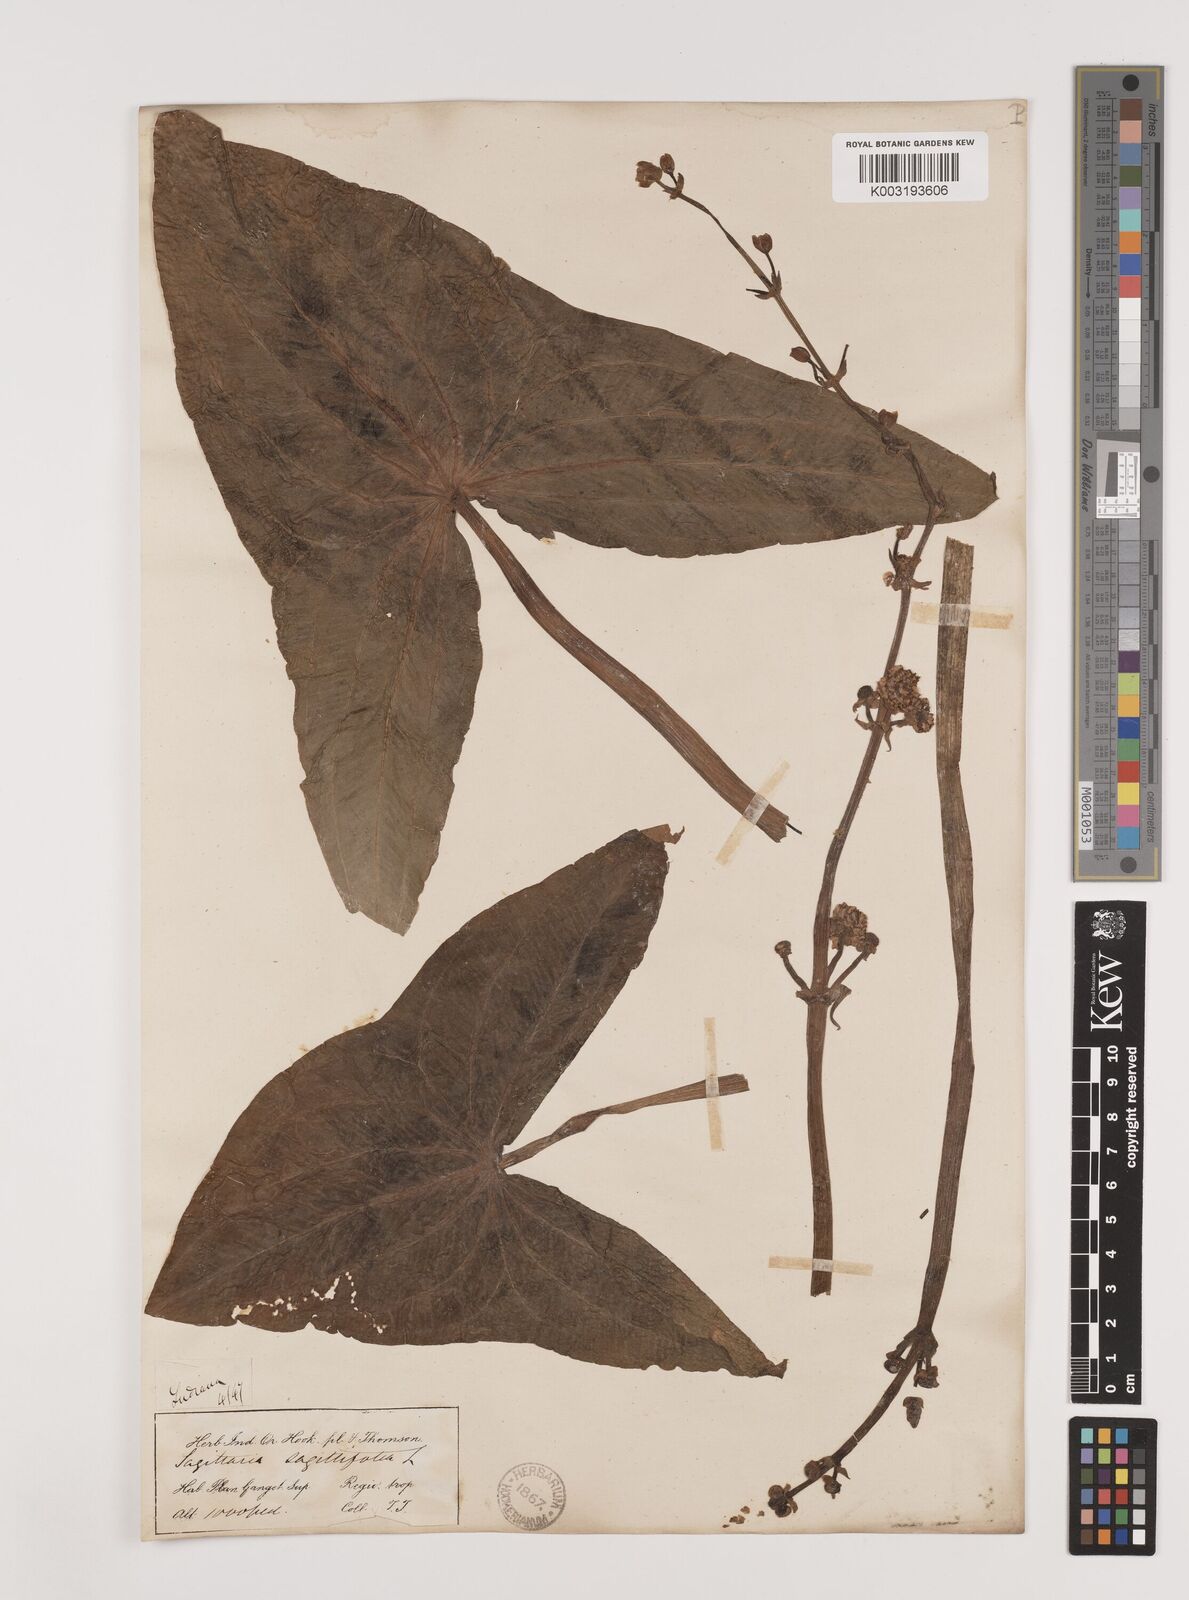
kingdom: Plantae
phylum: Tracheophyta
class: Liliopsida
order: Alismatales
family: Alismataceae
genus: Sagittaria
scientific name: Sagittaria sagittifolia
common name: Arrowhead
